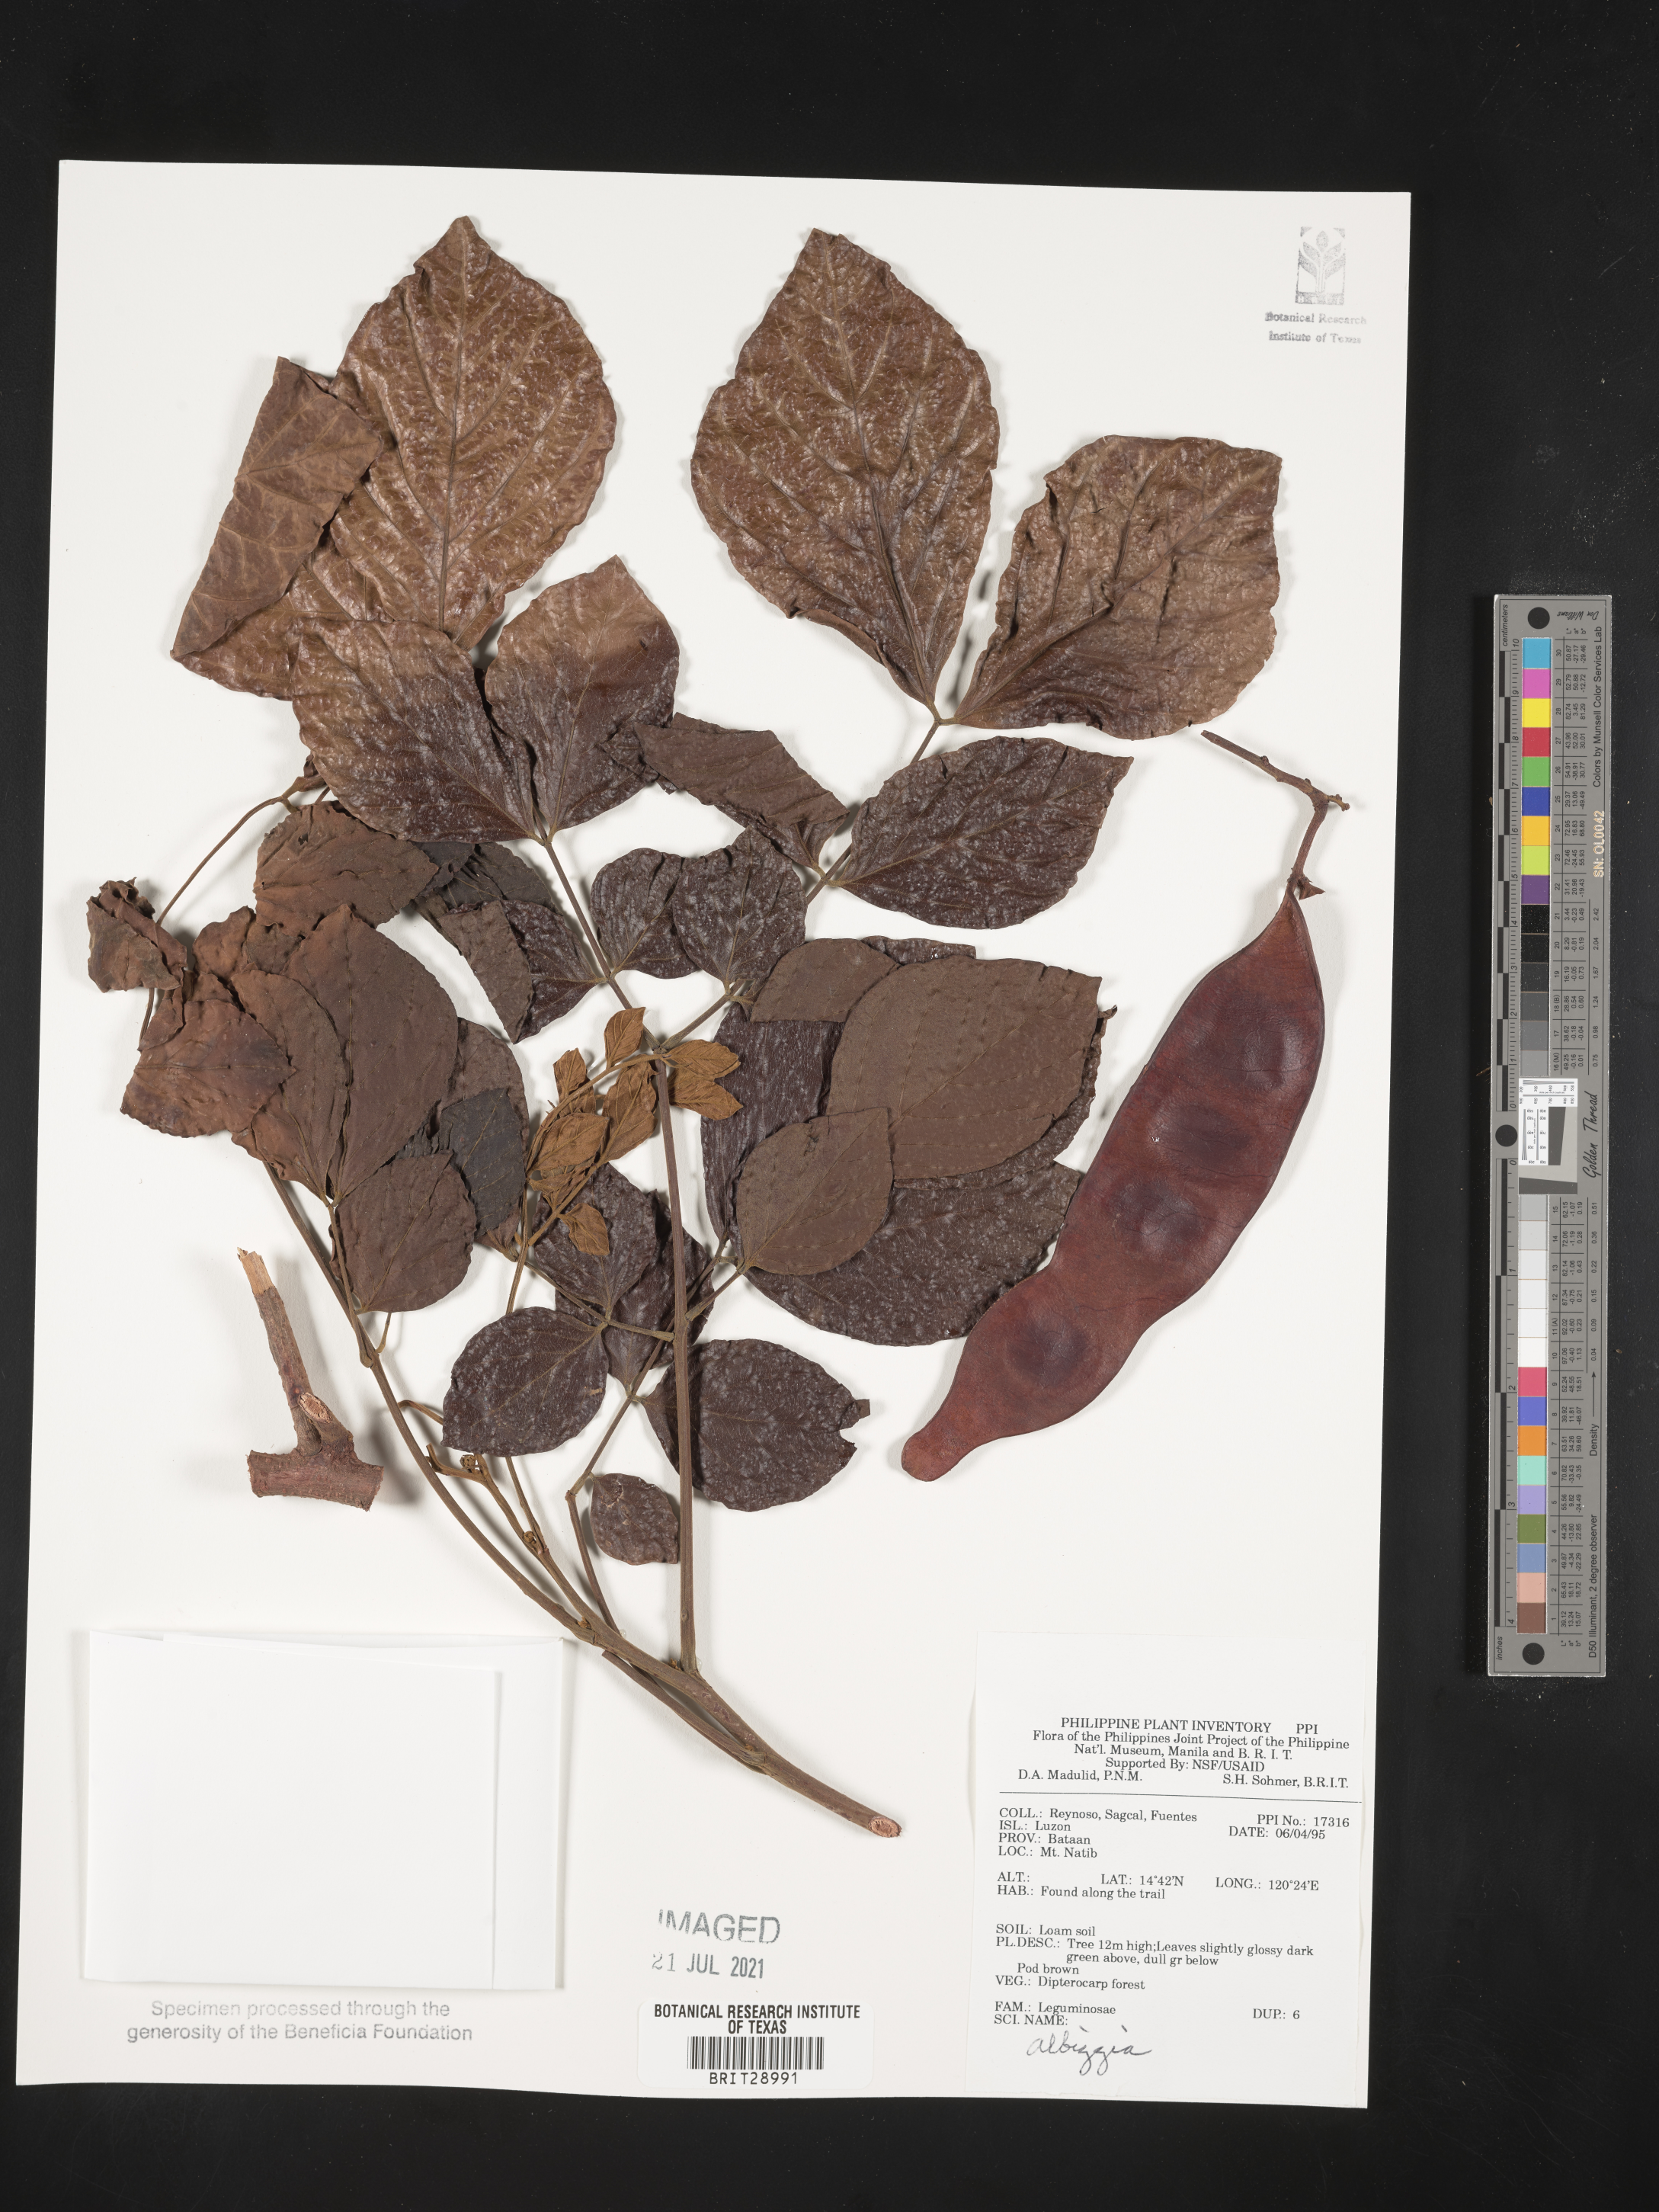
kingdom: Plantae
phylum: Tracheophyta
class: Magnoliopsida
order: Fabales
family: Fabaceae
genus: Albizia
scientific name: Albizia
